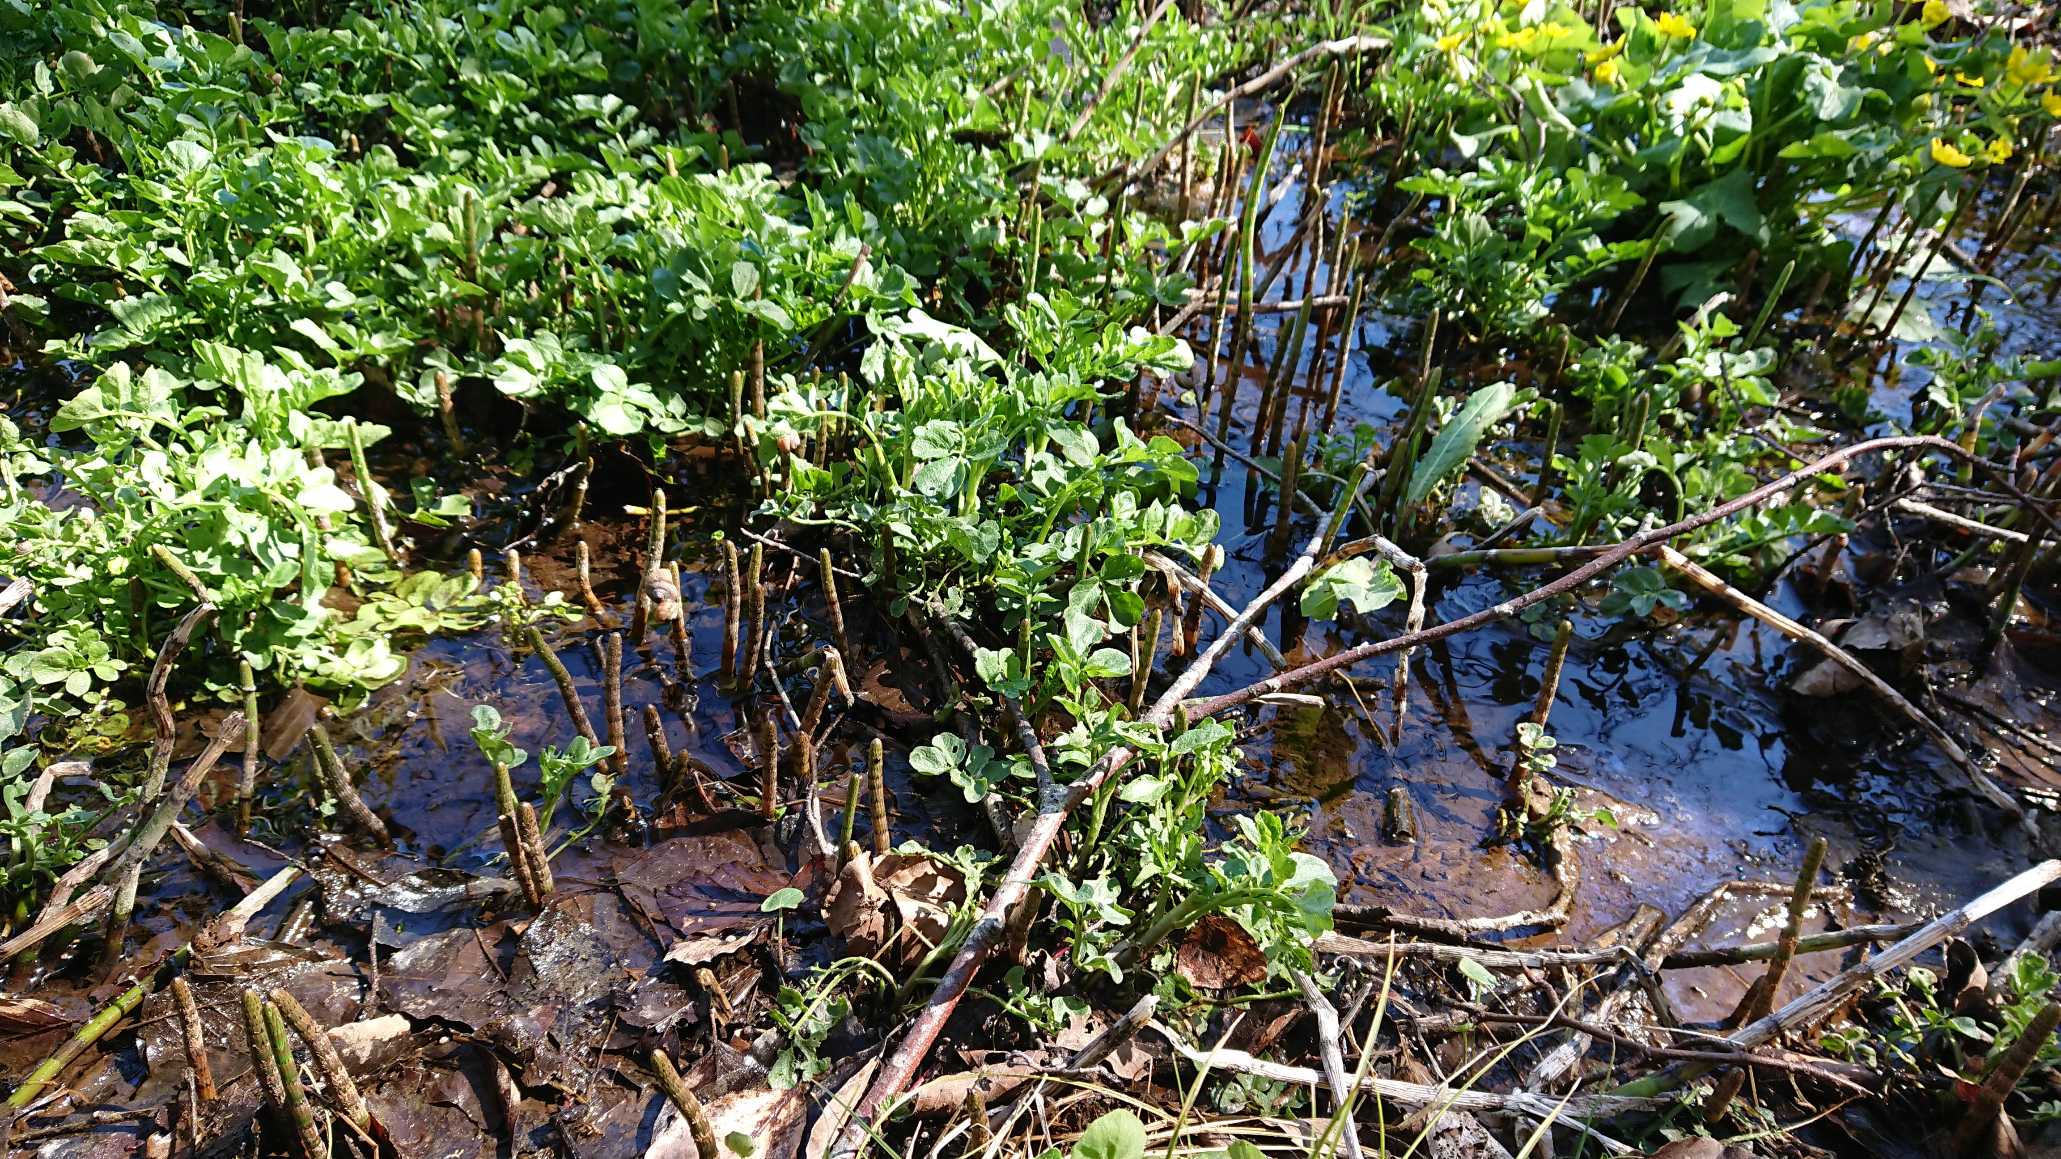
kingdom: Plantae
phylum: Tracheophyta
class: Polypodiopsida
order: Equisetales
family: Equisetaceae
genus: Equisetum
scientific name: Equisetum fluviatile
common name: Dynd-padderok
